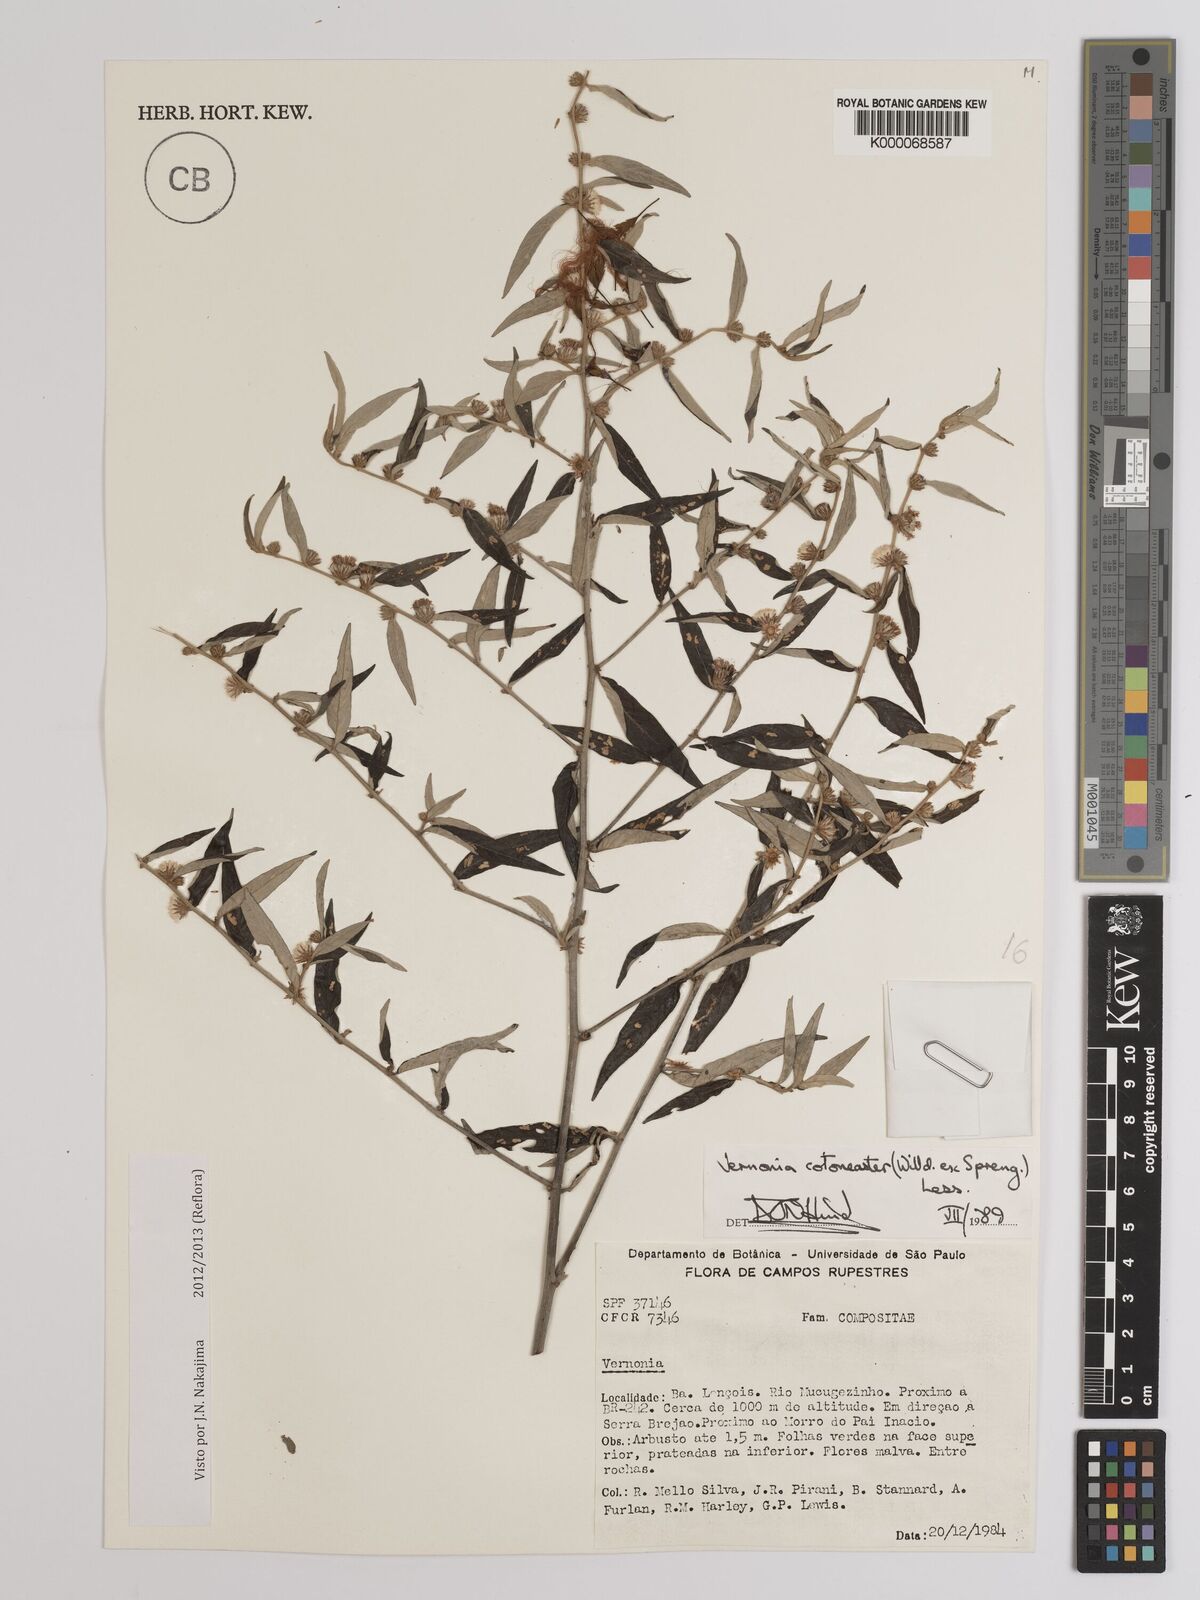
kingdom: Plantae
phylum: Tracheophyta
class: Magnoliopsida
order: Asterales
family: Asteraceae
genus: Lepidaploa
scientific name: Lepidaploa cotoneaster
